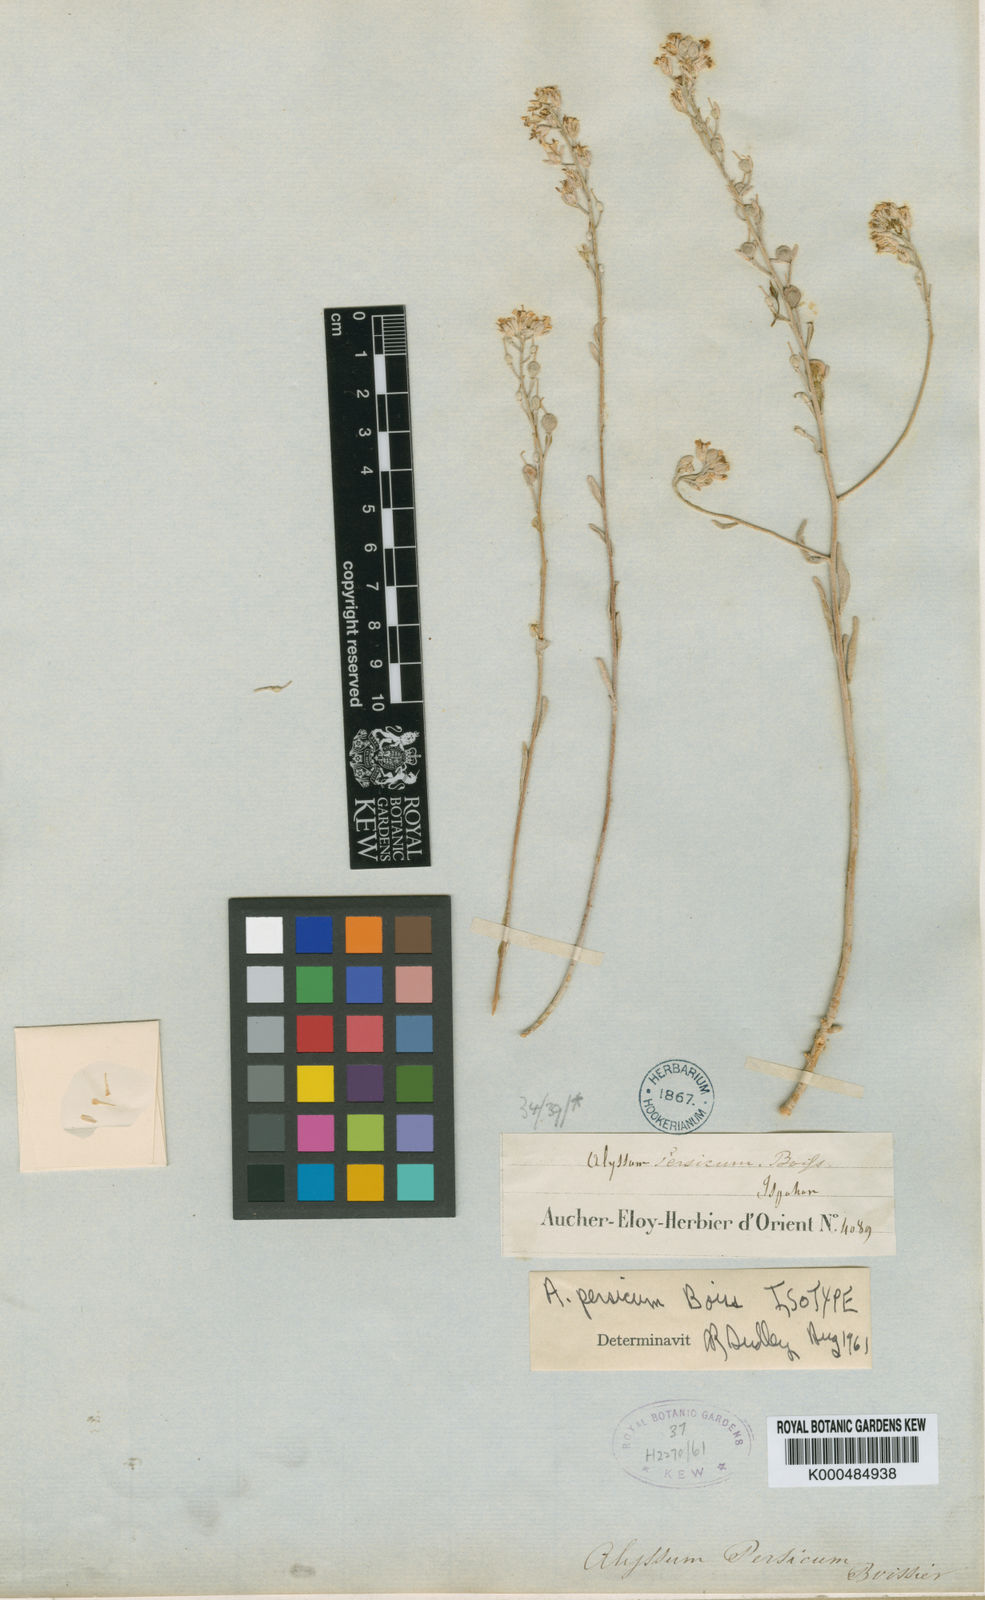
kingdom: Plantae
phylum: Tracheophyta
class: Magnoliopsida
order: Brassicales
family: Brassicaceae
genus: Alyssum
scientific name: Alyssum persicum
